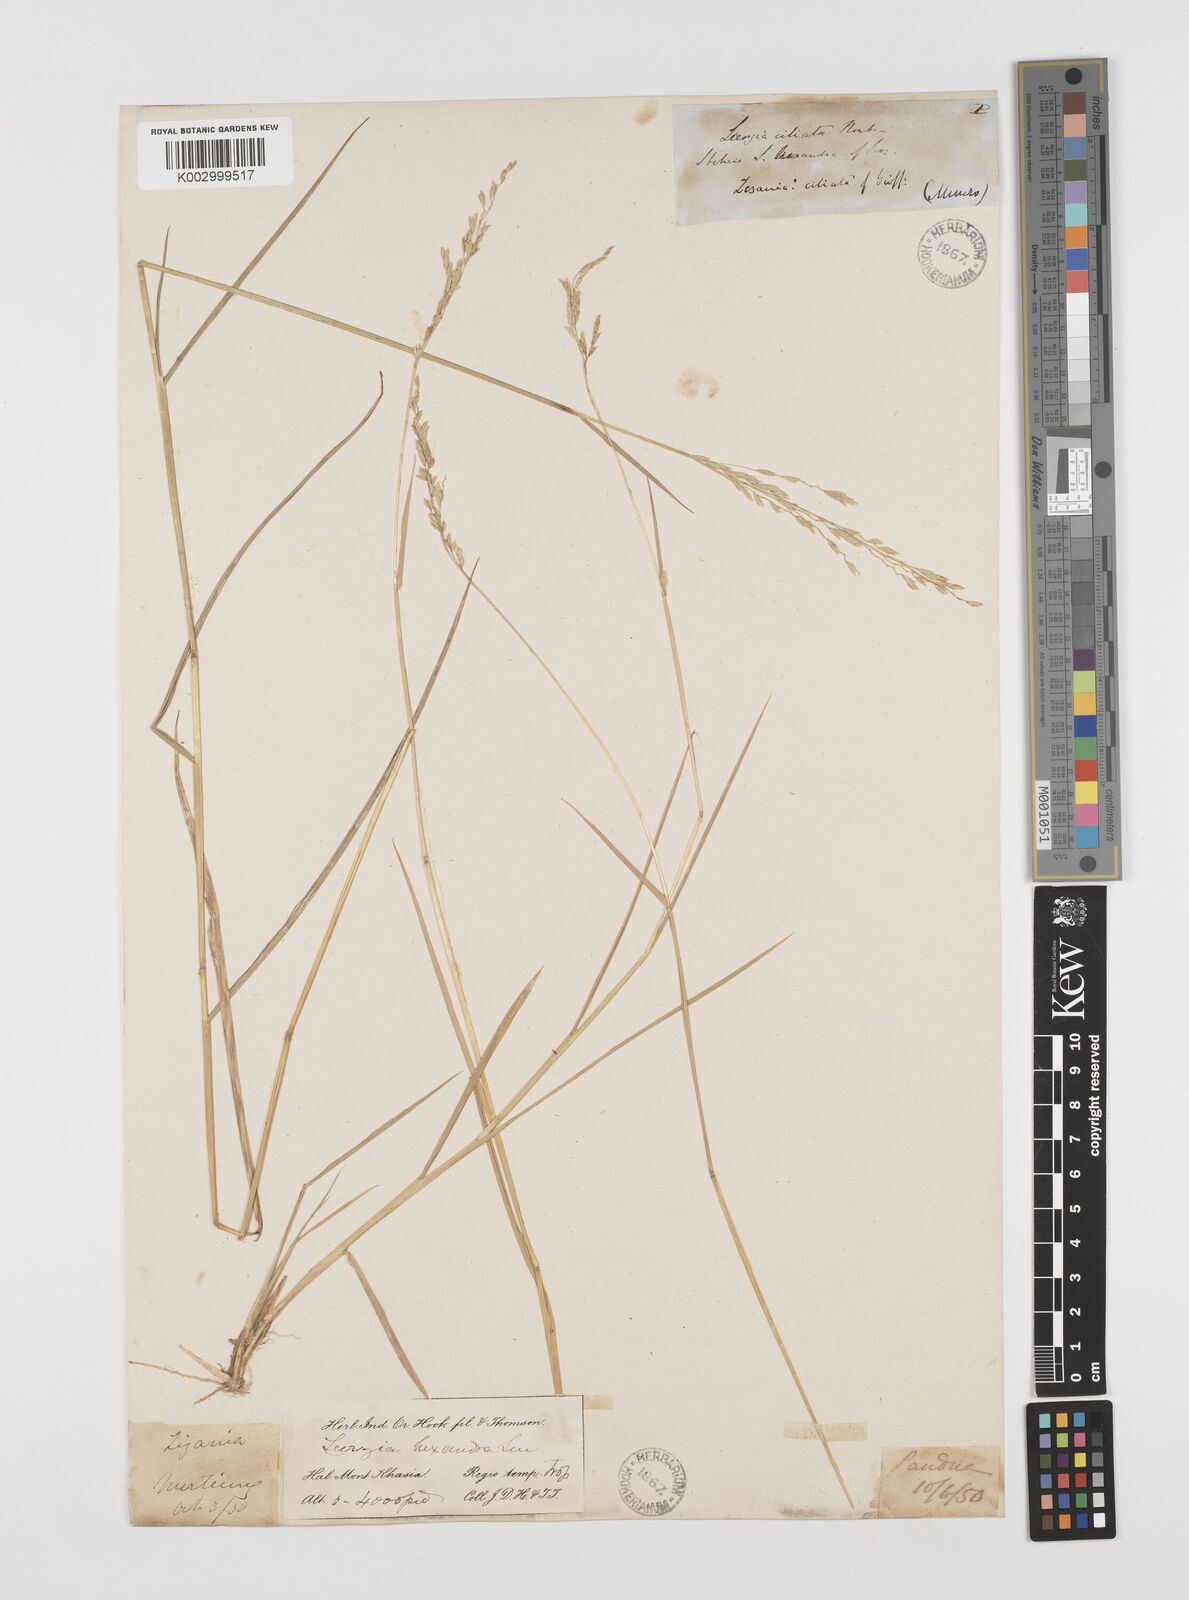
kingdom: Plantae
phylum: Tracheophyta
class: Liliopsida
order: Poales
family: Poaceae
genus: Leersia
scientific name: Leersia hexandra
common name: Southern cut grass
